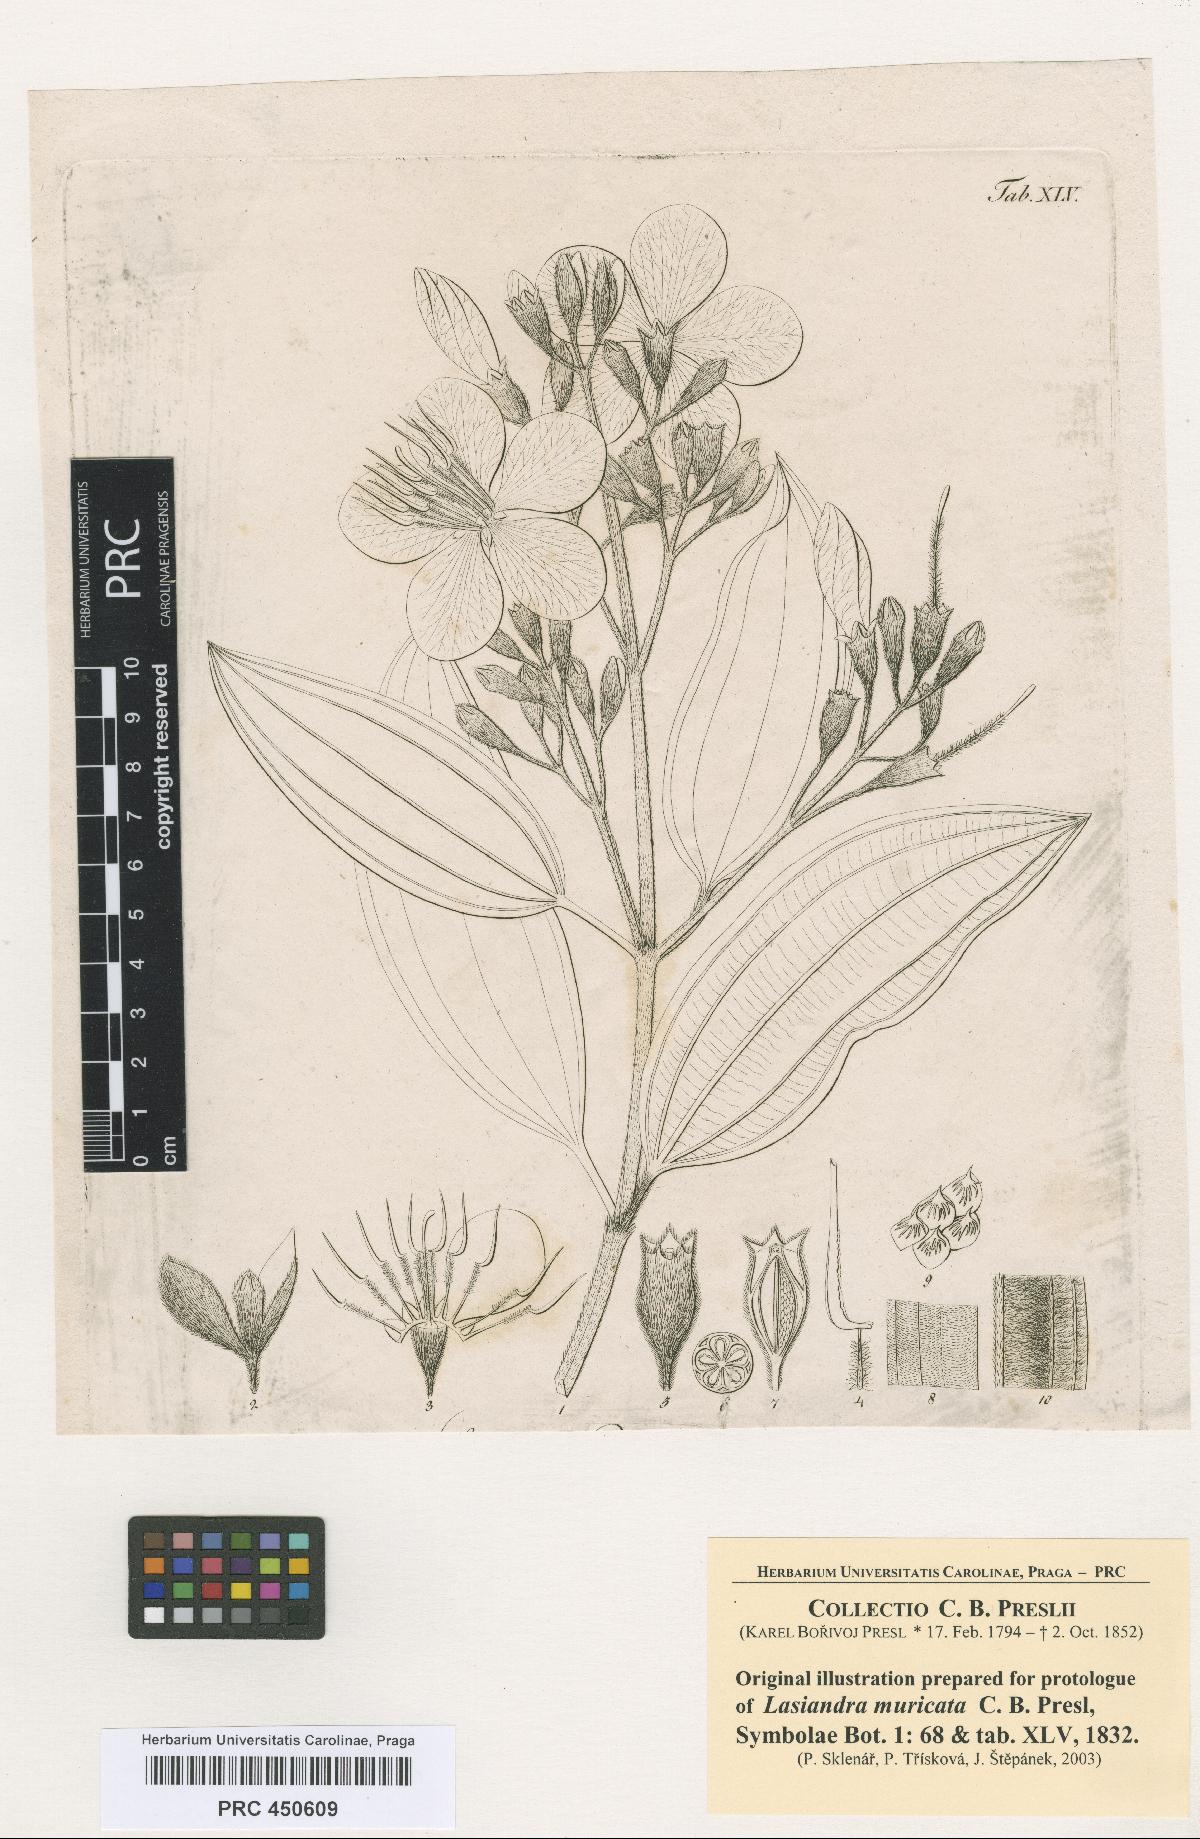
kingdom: Plantae
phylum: Tracheophyta
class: Magnoliopsida
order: Myrtales
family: Melastomataceae
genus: Pleroma
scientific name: Pleroma estrellense
